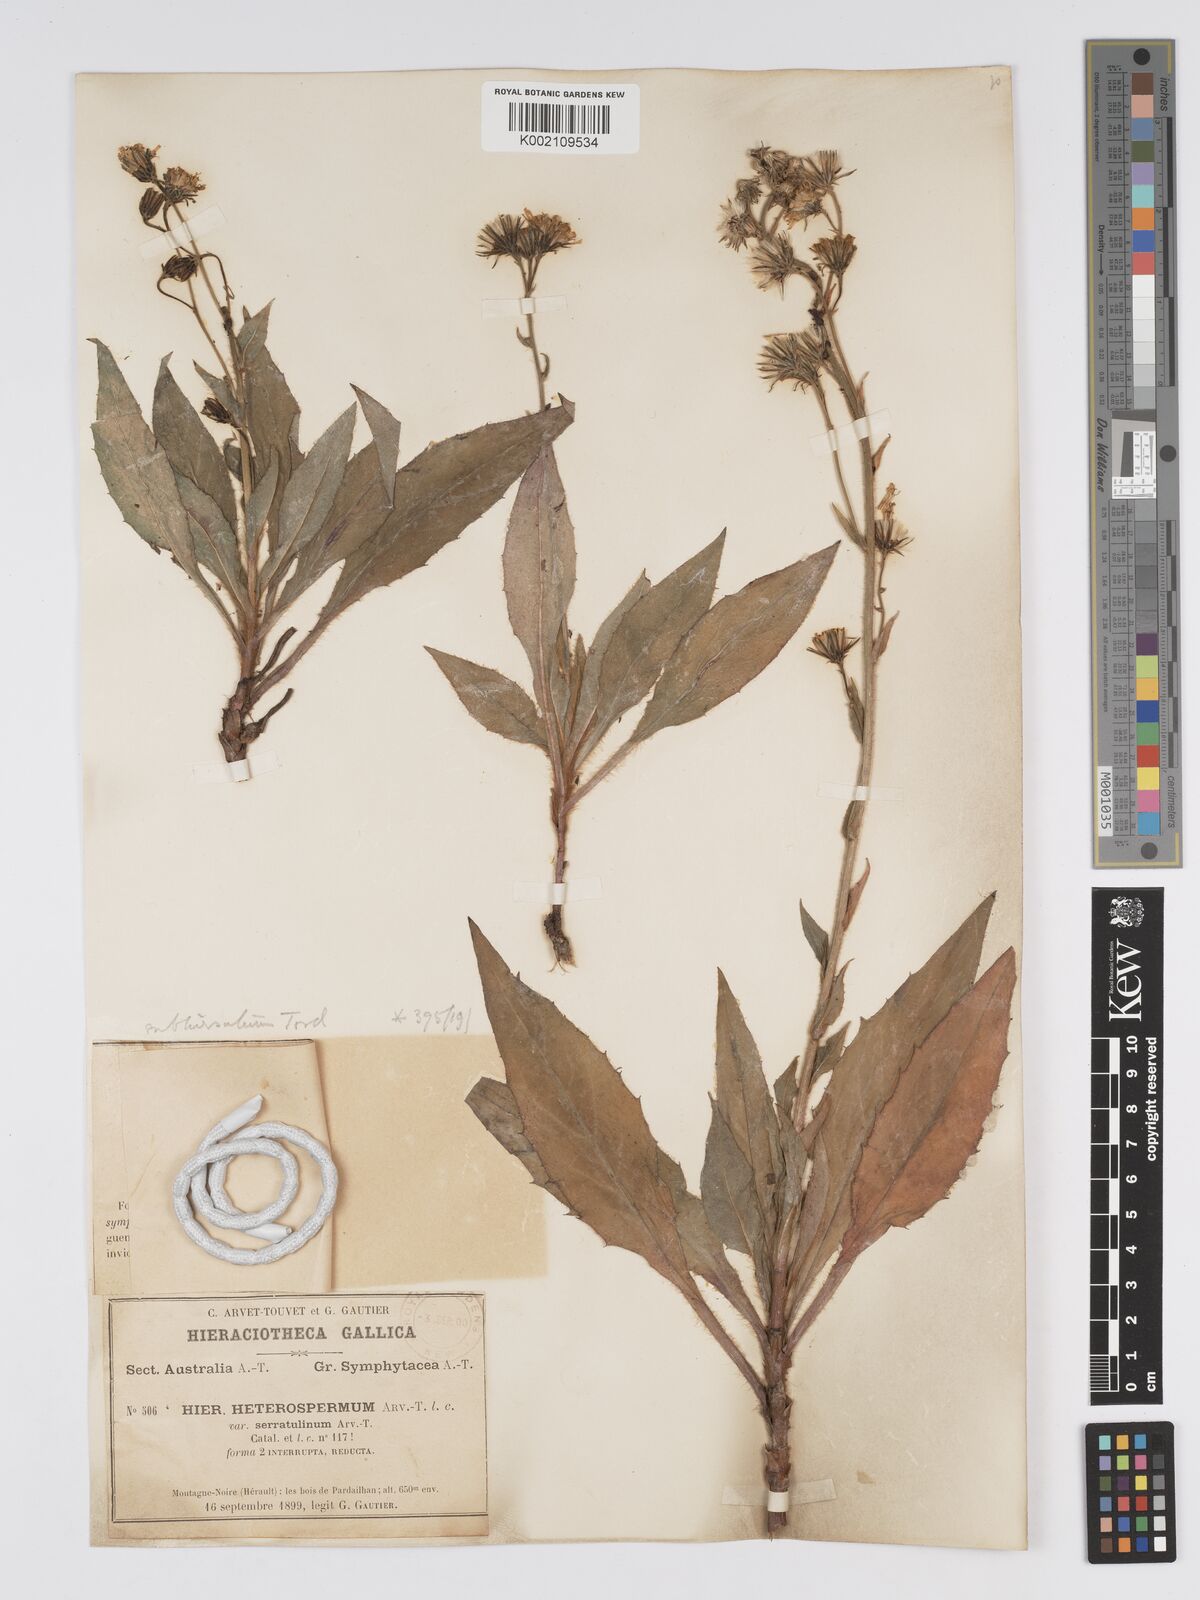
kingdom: Plantae
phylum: Tracheophyta
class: Magnoliopsida
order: Asterales
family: Asteraceae
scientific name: Asteraceae
